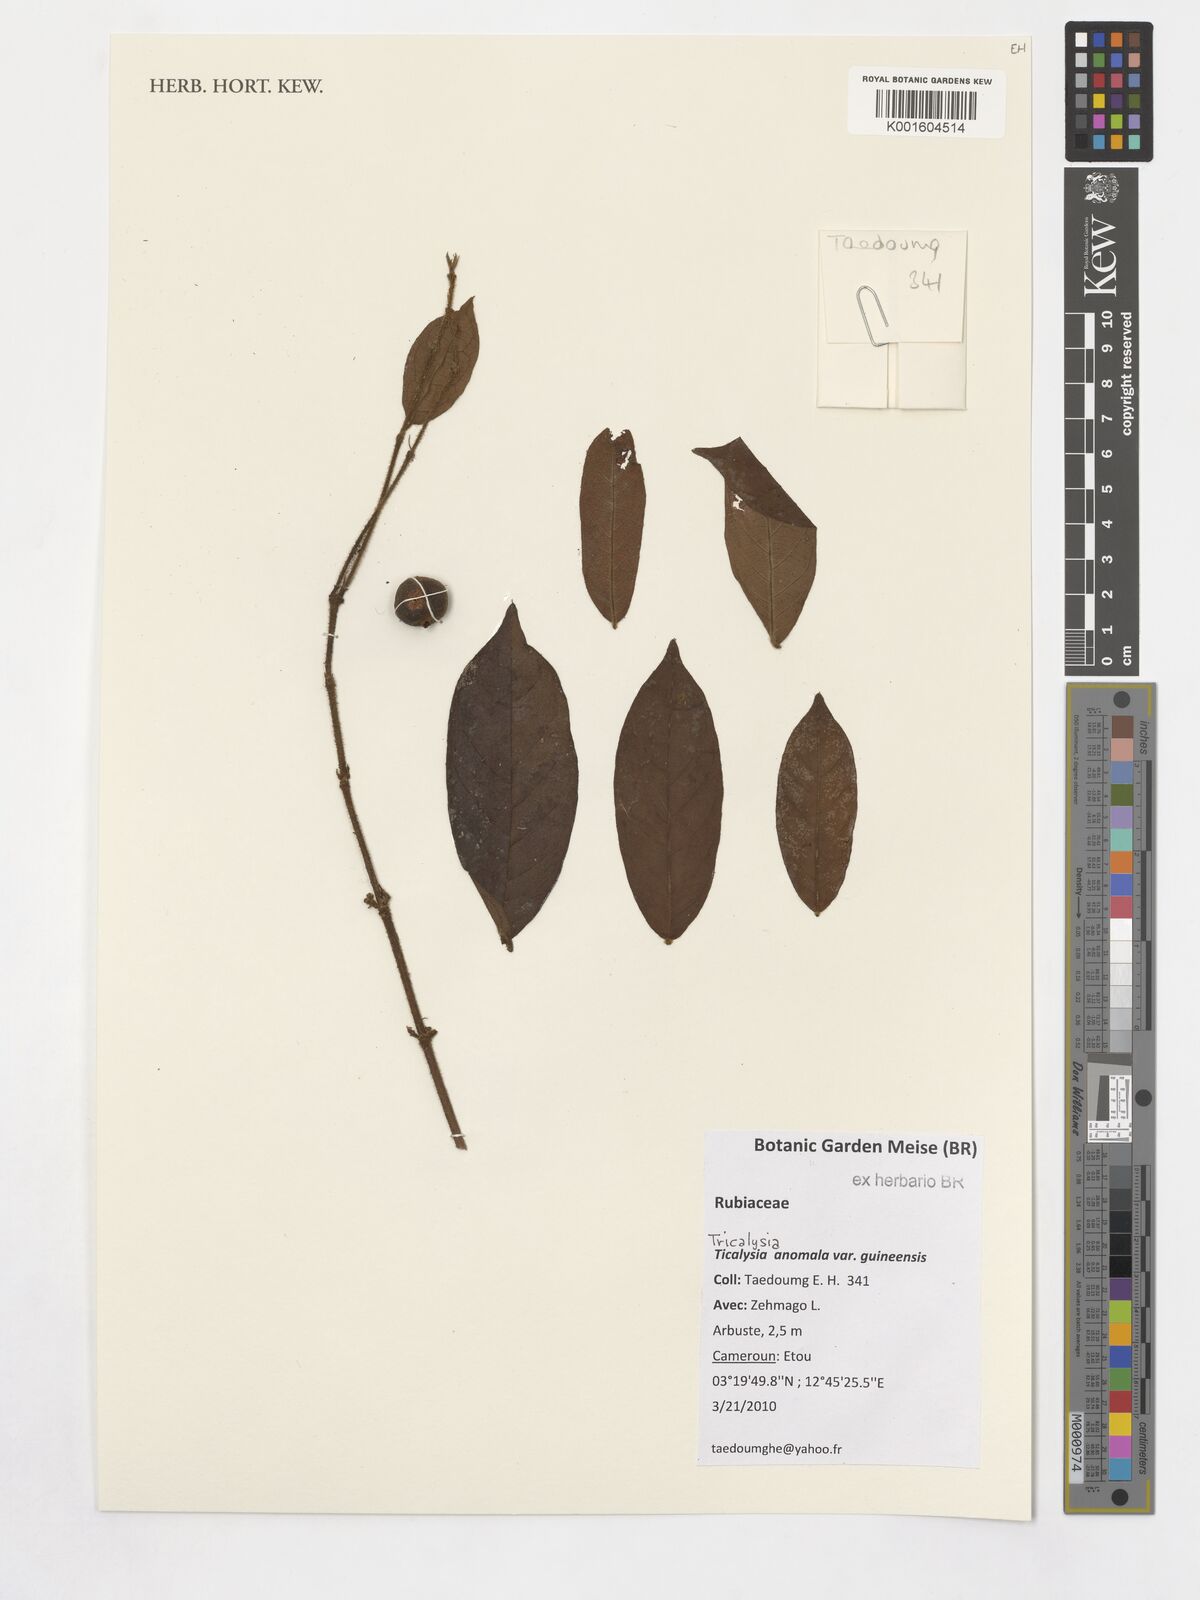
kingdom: Plantae
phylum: Tracheophyta
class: Magnoliopsida
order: Gentianales
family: Rubiaceae
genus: Tricalysia
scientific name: Tricalysia anomala
